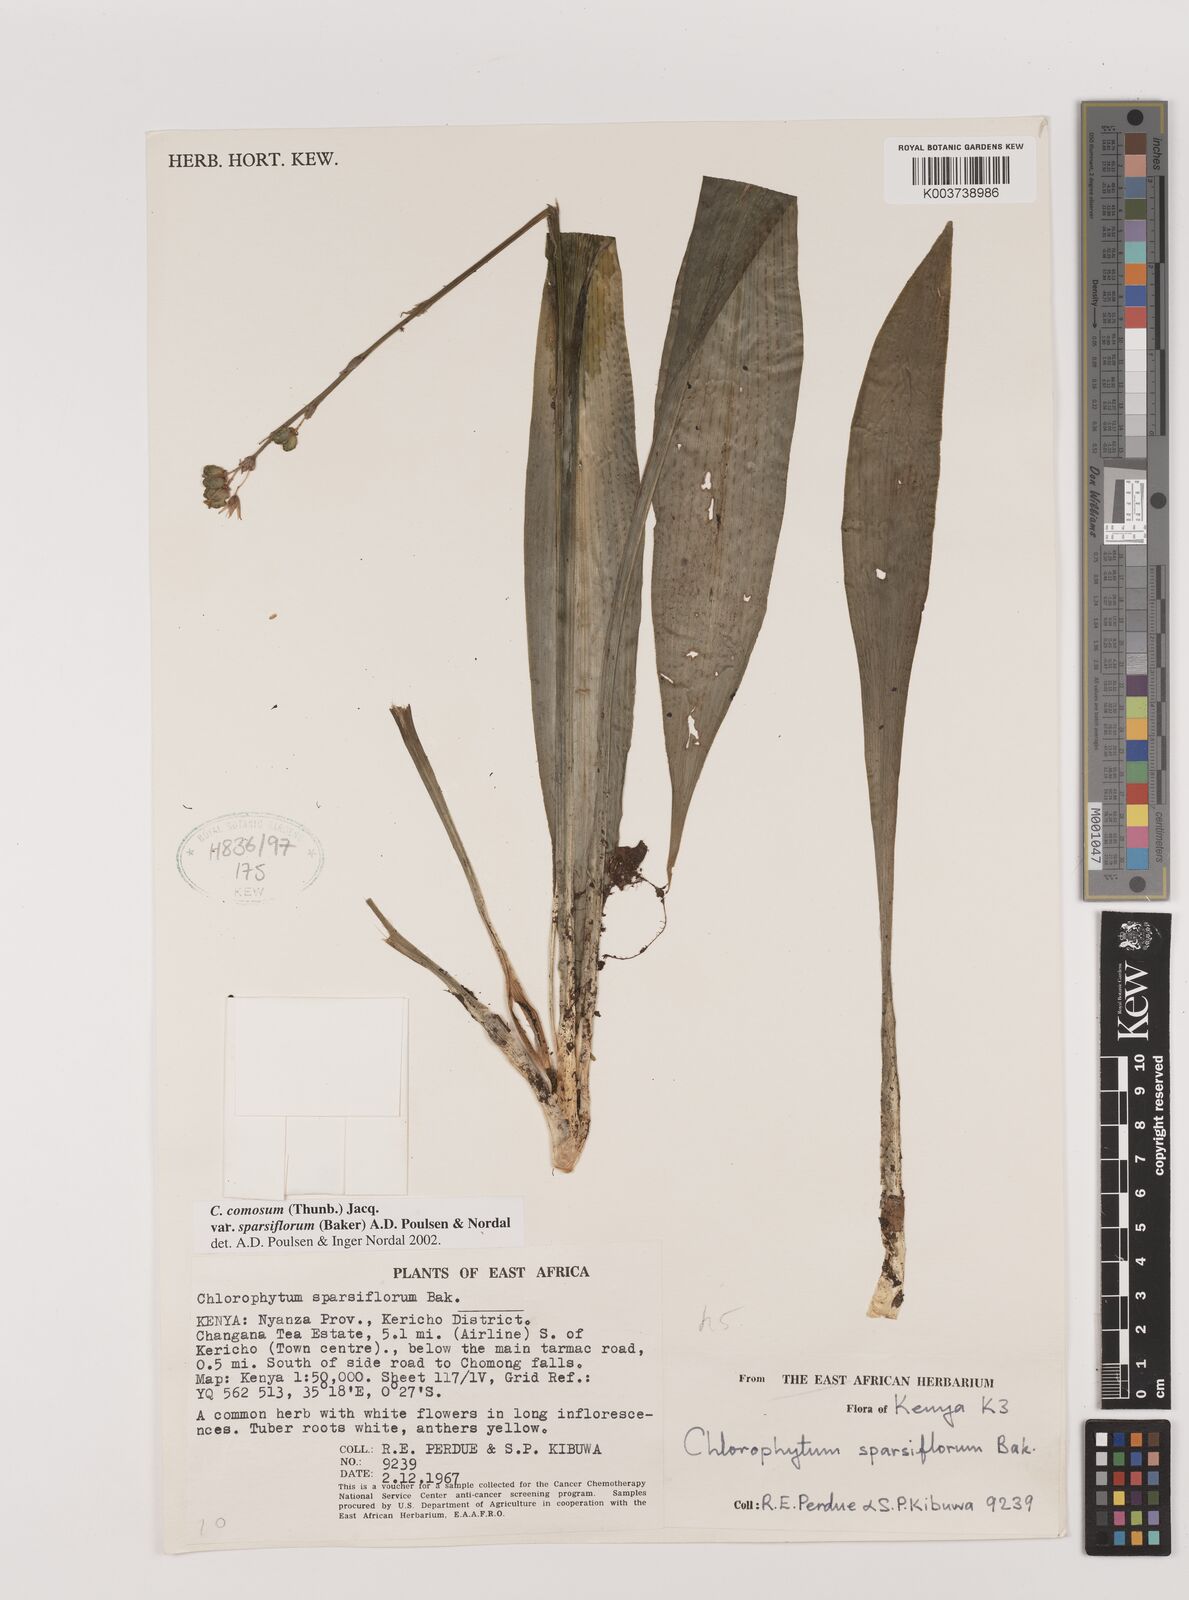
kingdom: Plantae
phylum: Tracheophyta
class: Liliopsida
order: Asparagales
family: Asparagaceae
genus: Chlorophytum
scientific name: Chlorophytum sparsiflorum
